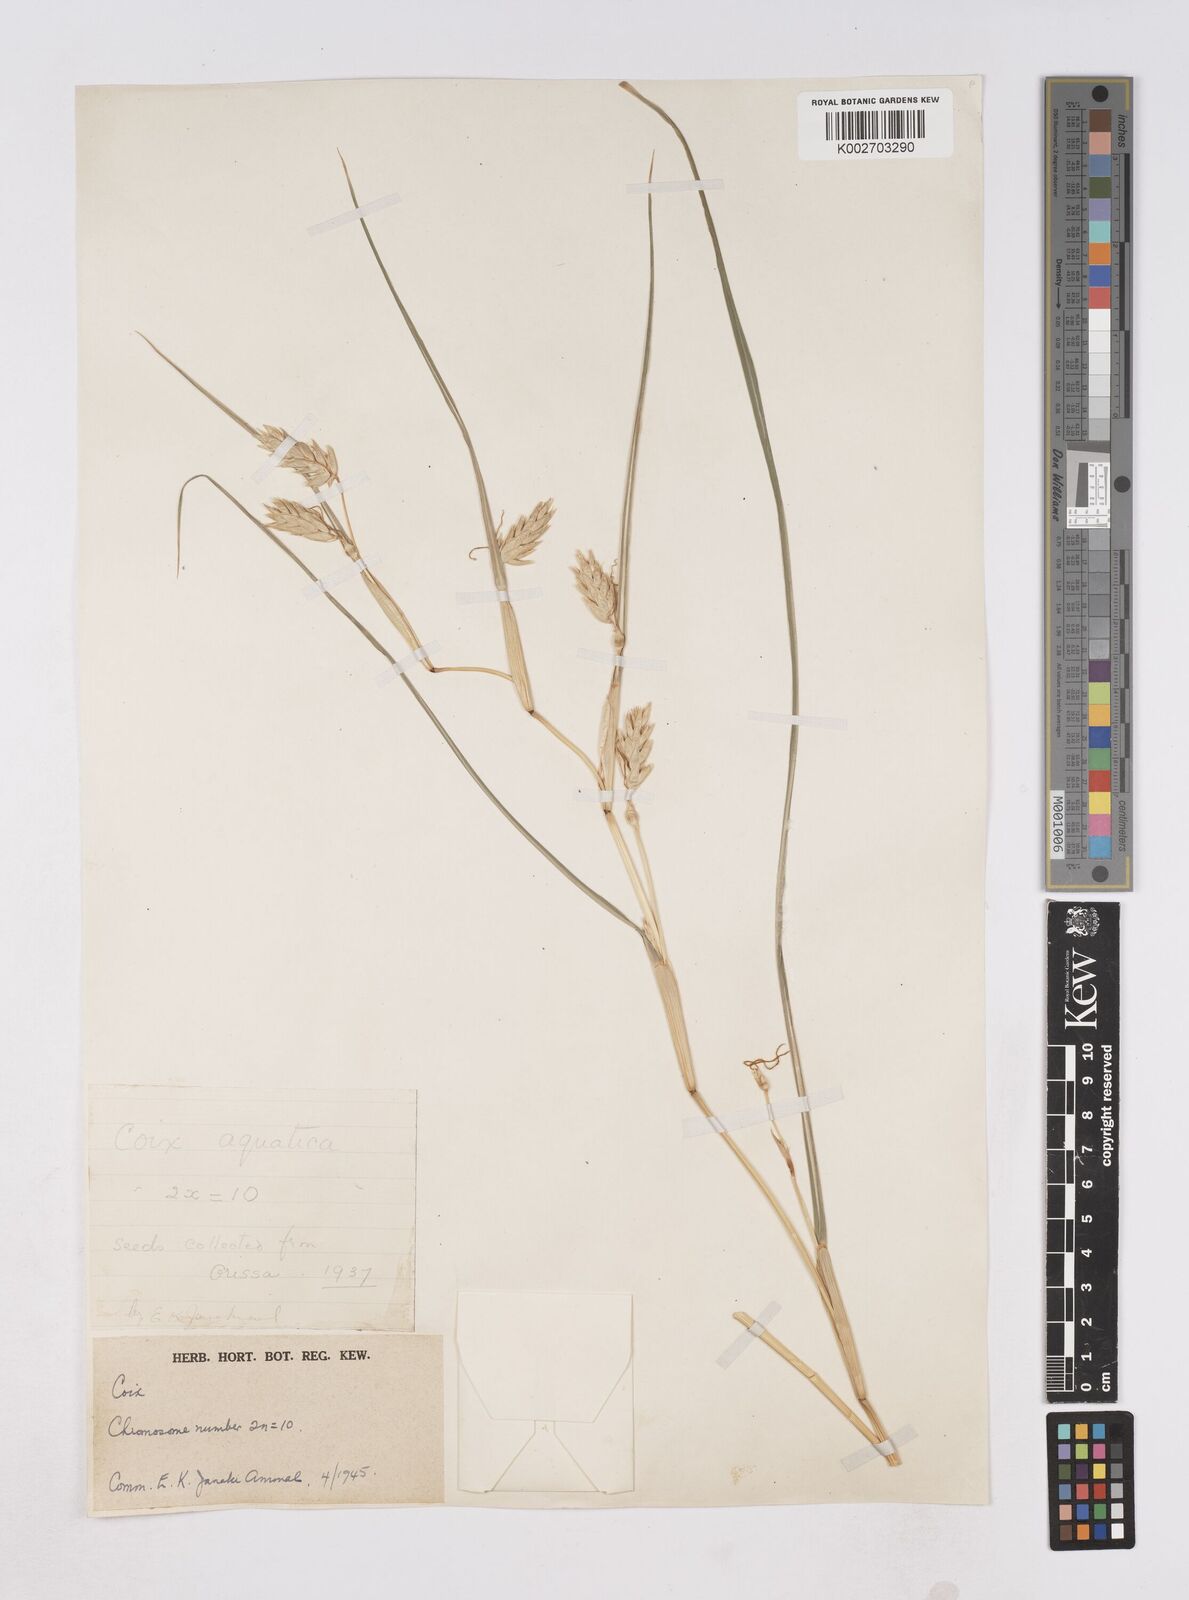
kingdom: Plantae
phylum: Tracheophyta
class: Liliopsida
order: Poales
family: Poaceae
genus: Coix
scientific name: Coix aquatica
